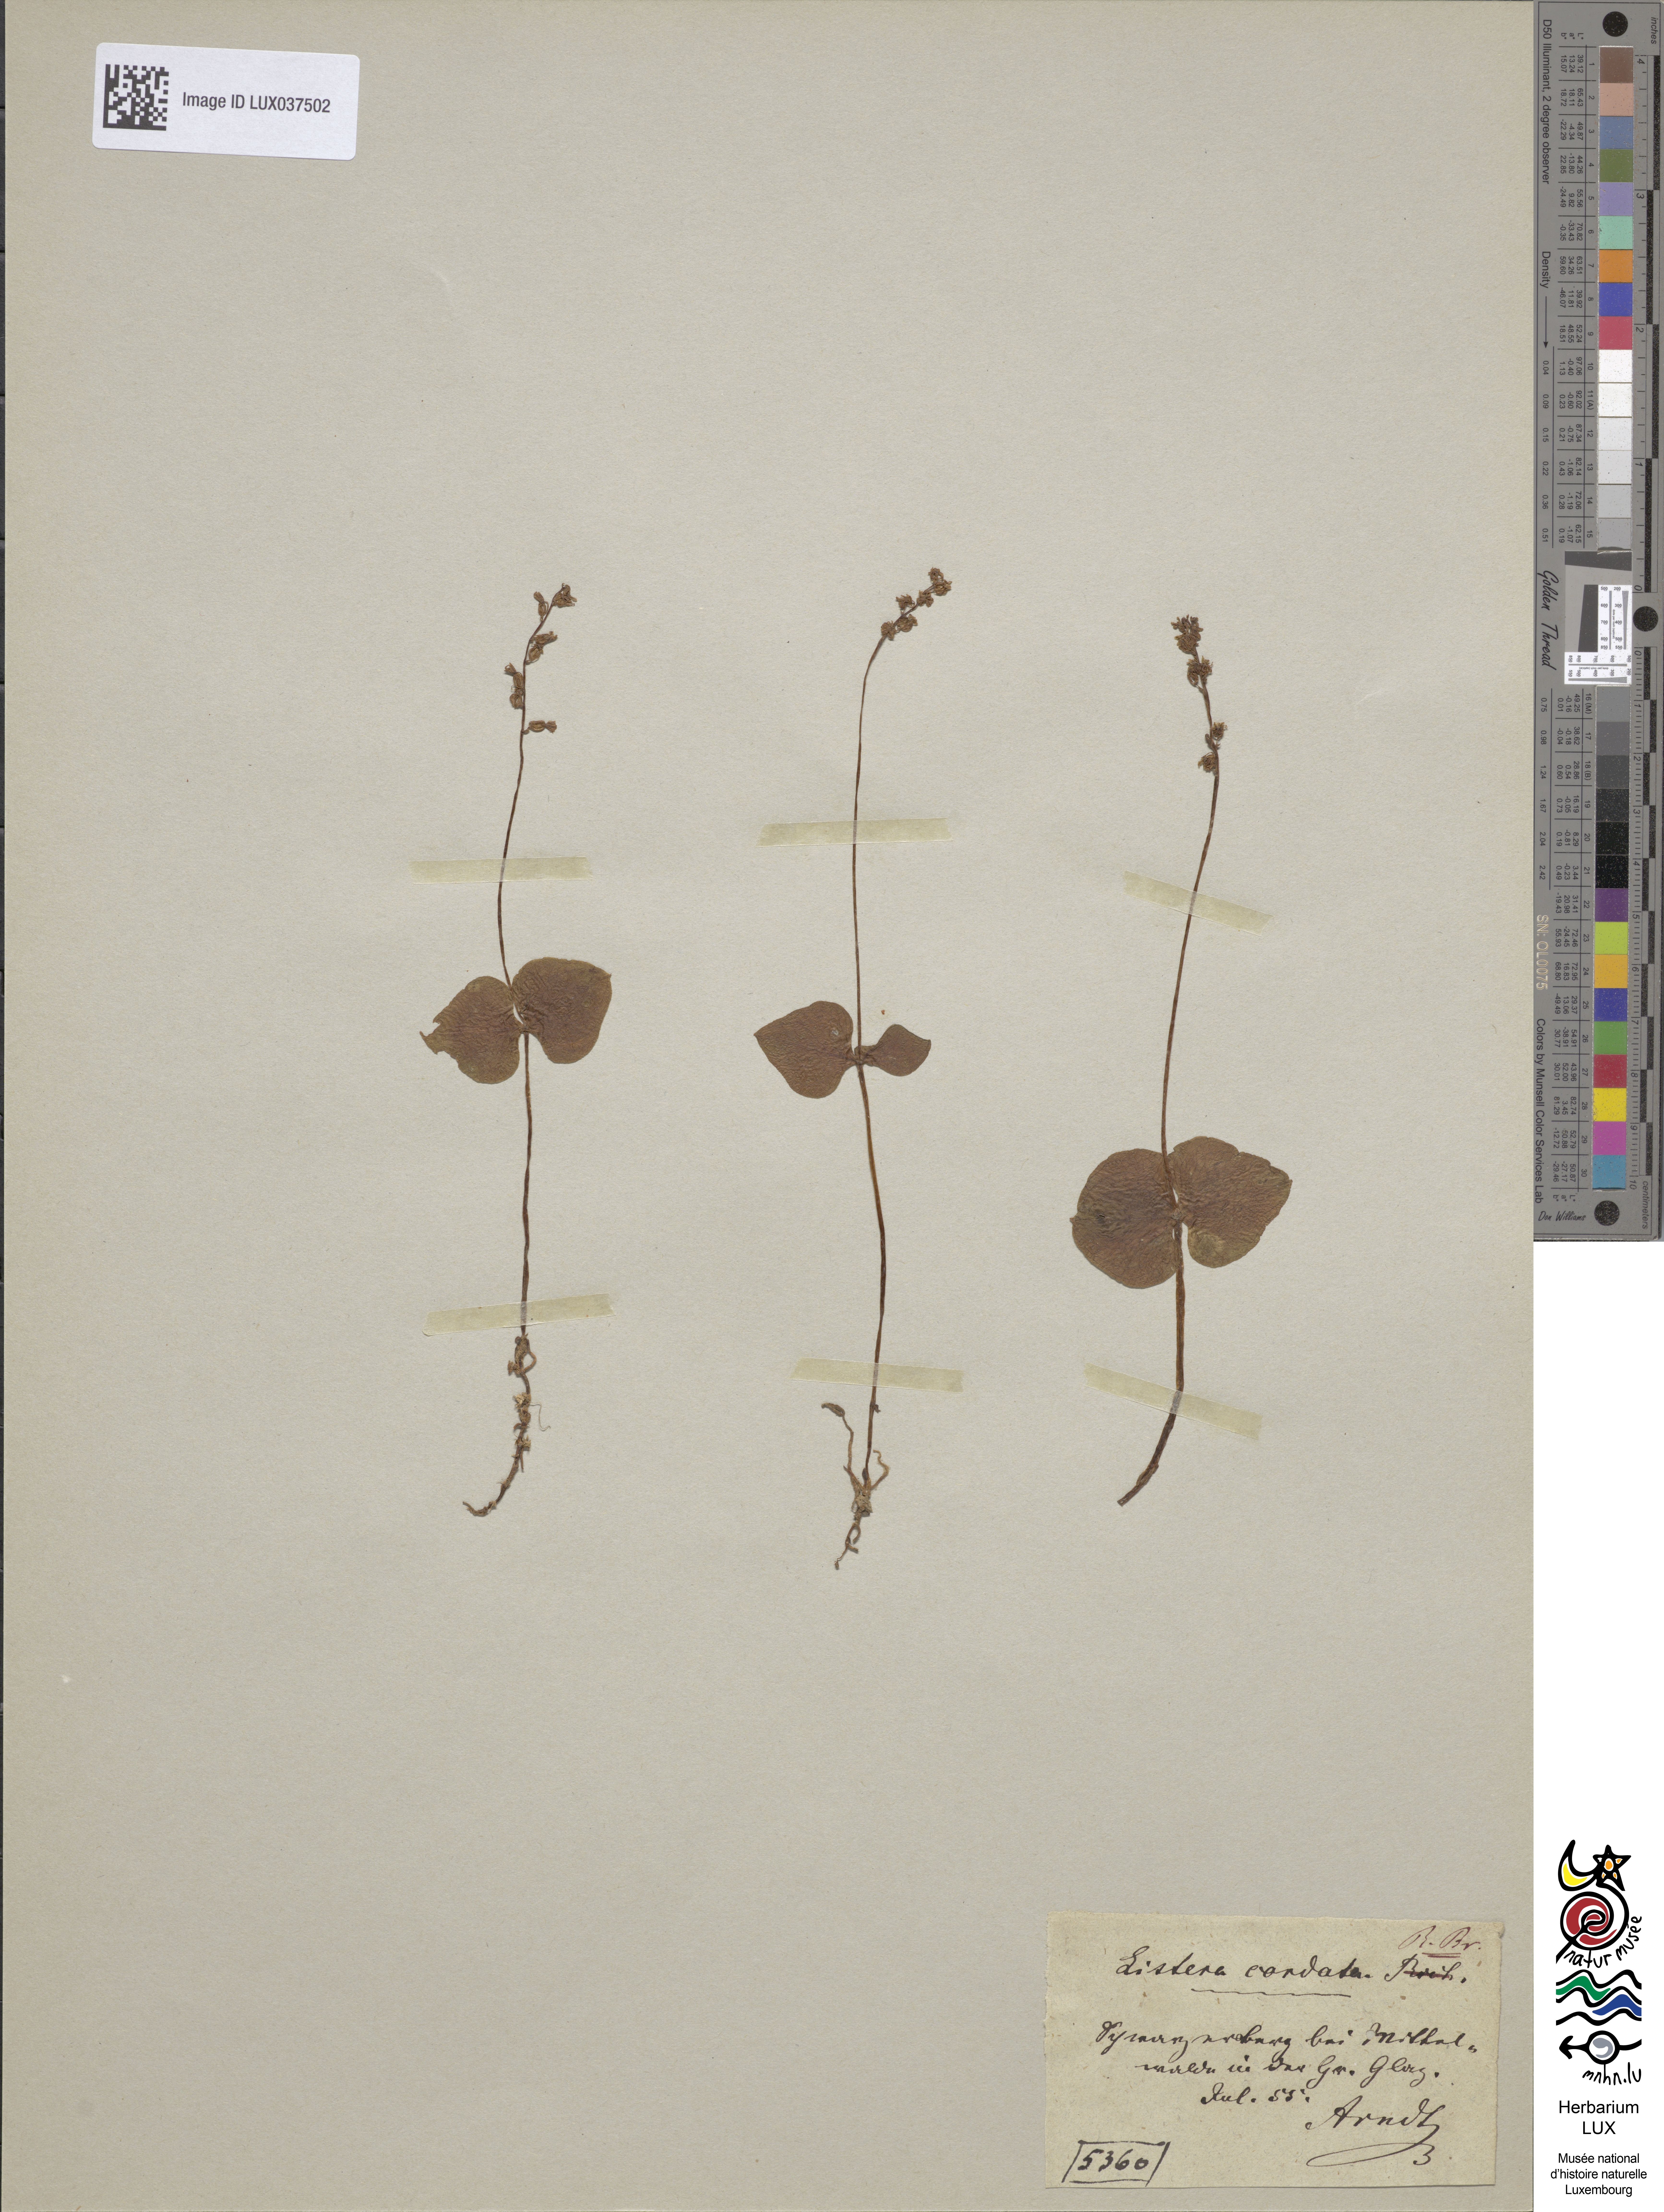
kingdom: Plantae
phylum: Tracheophyta
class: Liliopsida
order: Asparagales
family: Orchidaceae
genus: Neottia
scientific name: Neottia cordata
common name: Lesser twayblade
